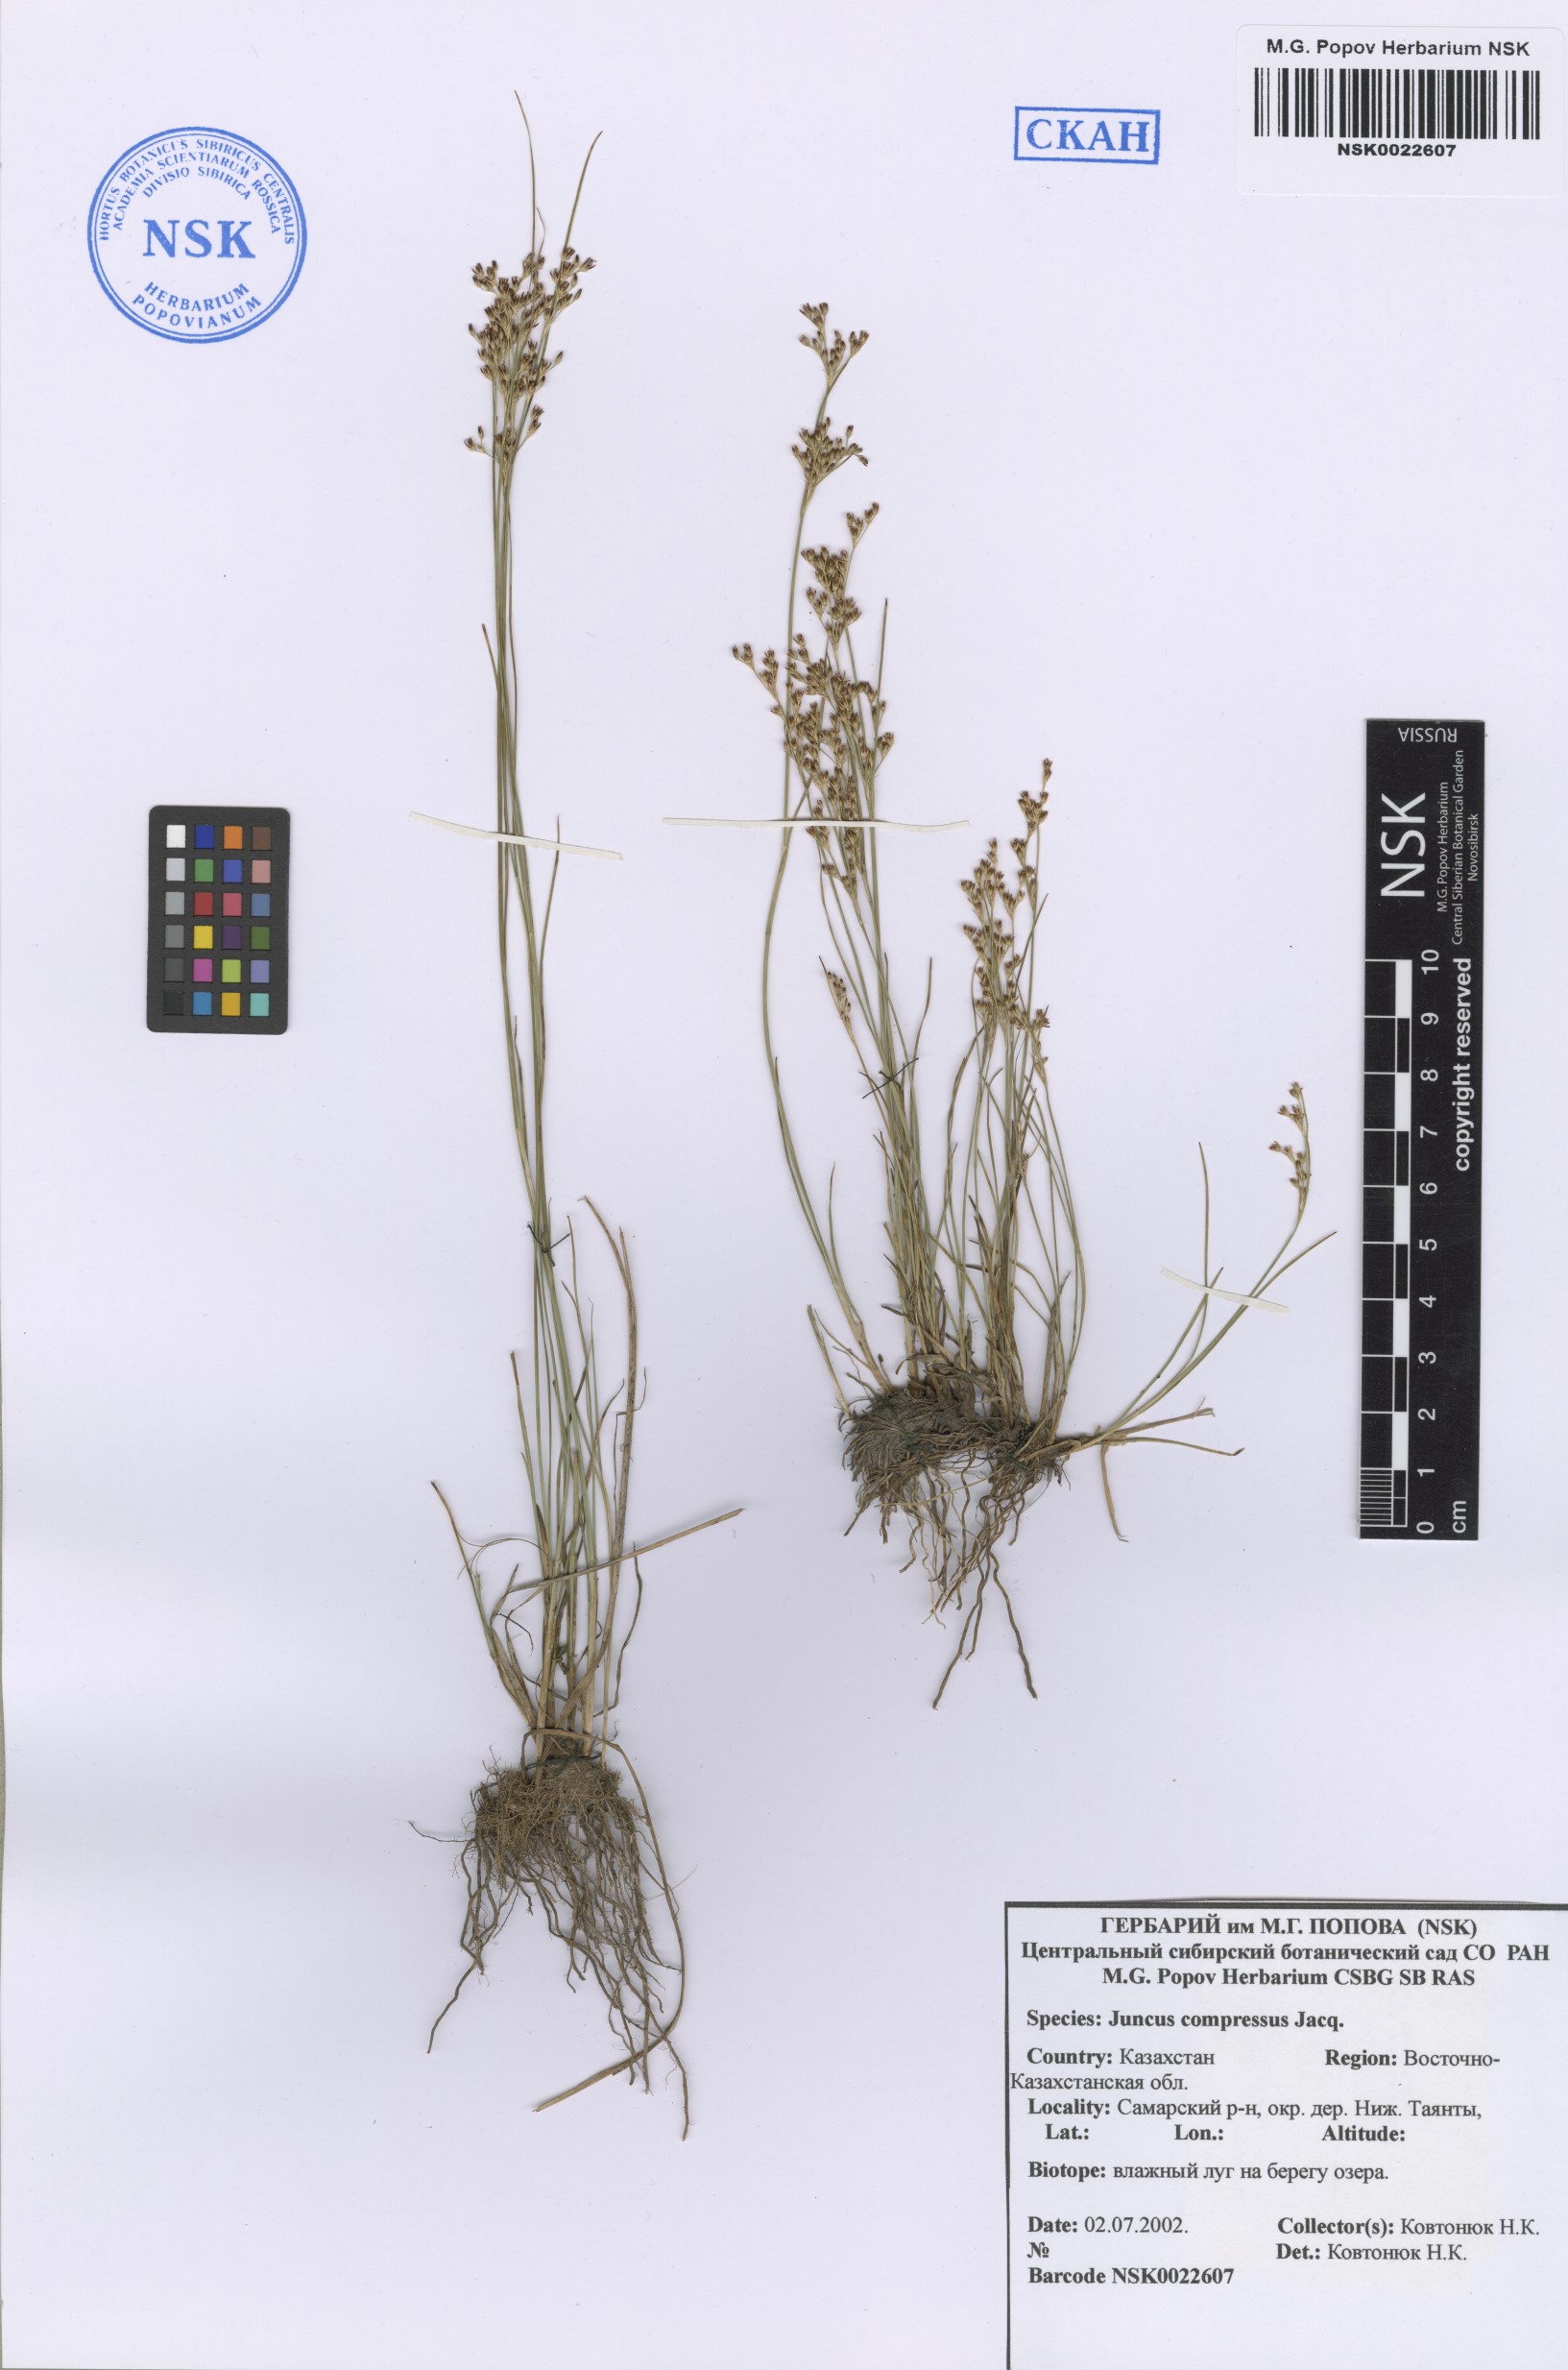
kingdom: Plantae
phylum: Tracheophyta
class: Liliopsida
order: Poales
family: Juncaceae
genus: Juncus
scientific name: Juncus compressus
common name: Round-fruited rush
